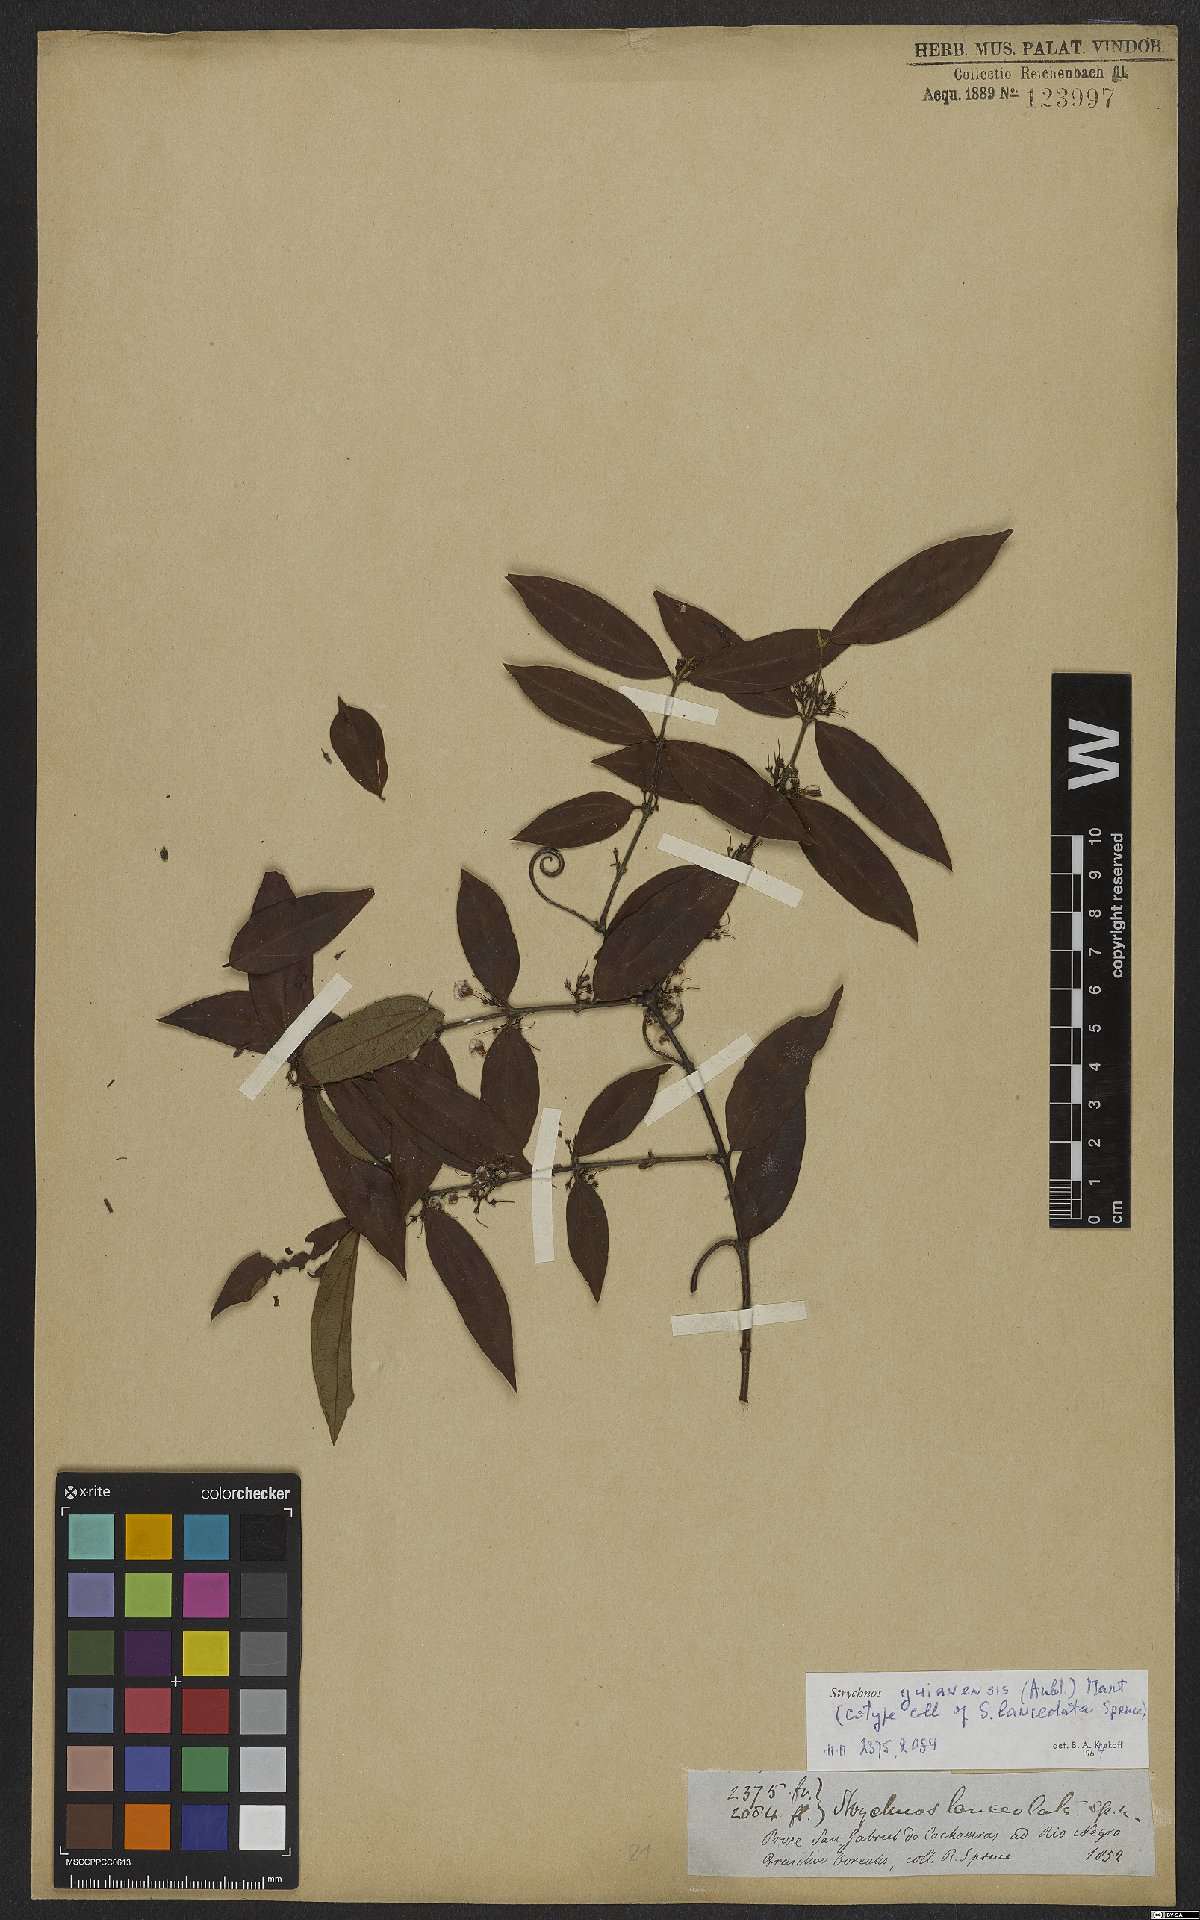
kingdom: Plantae
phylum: Tracheophyta
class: Magnoliopsida
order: Gentianales
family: Loganiaceae
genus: Strychnos
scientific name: Strychnos guianensis
